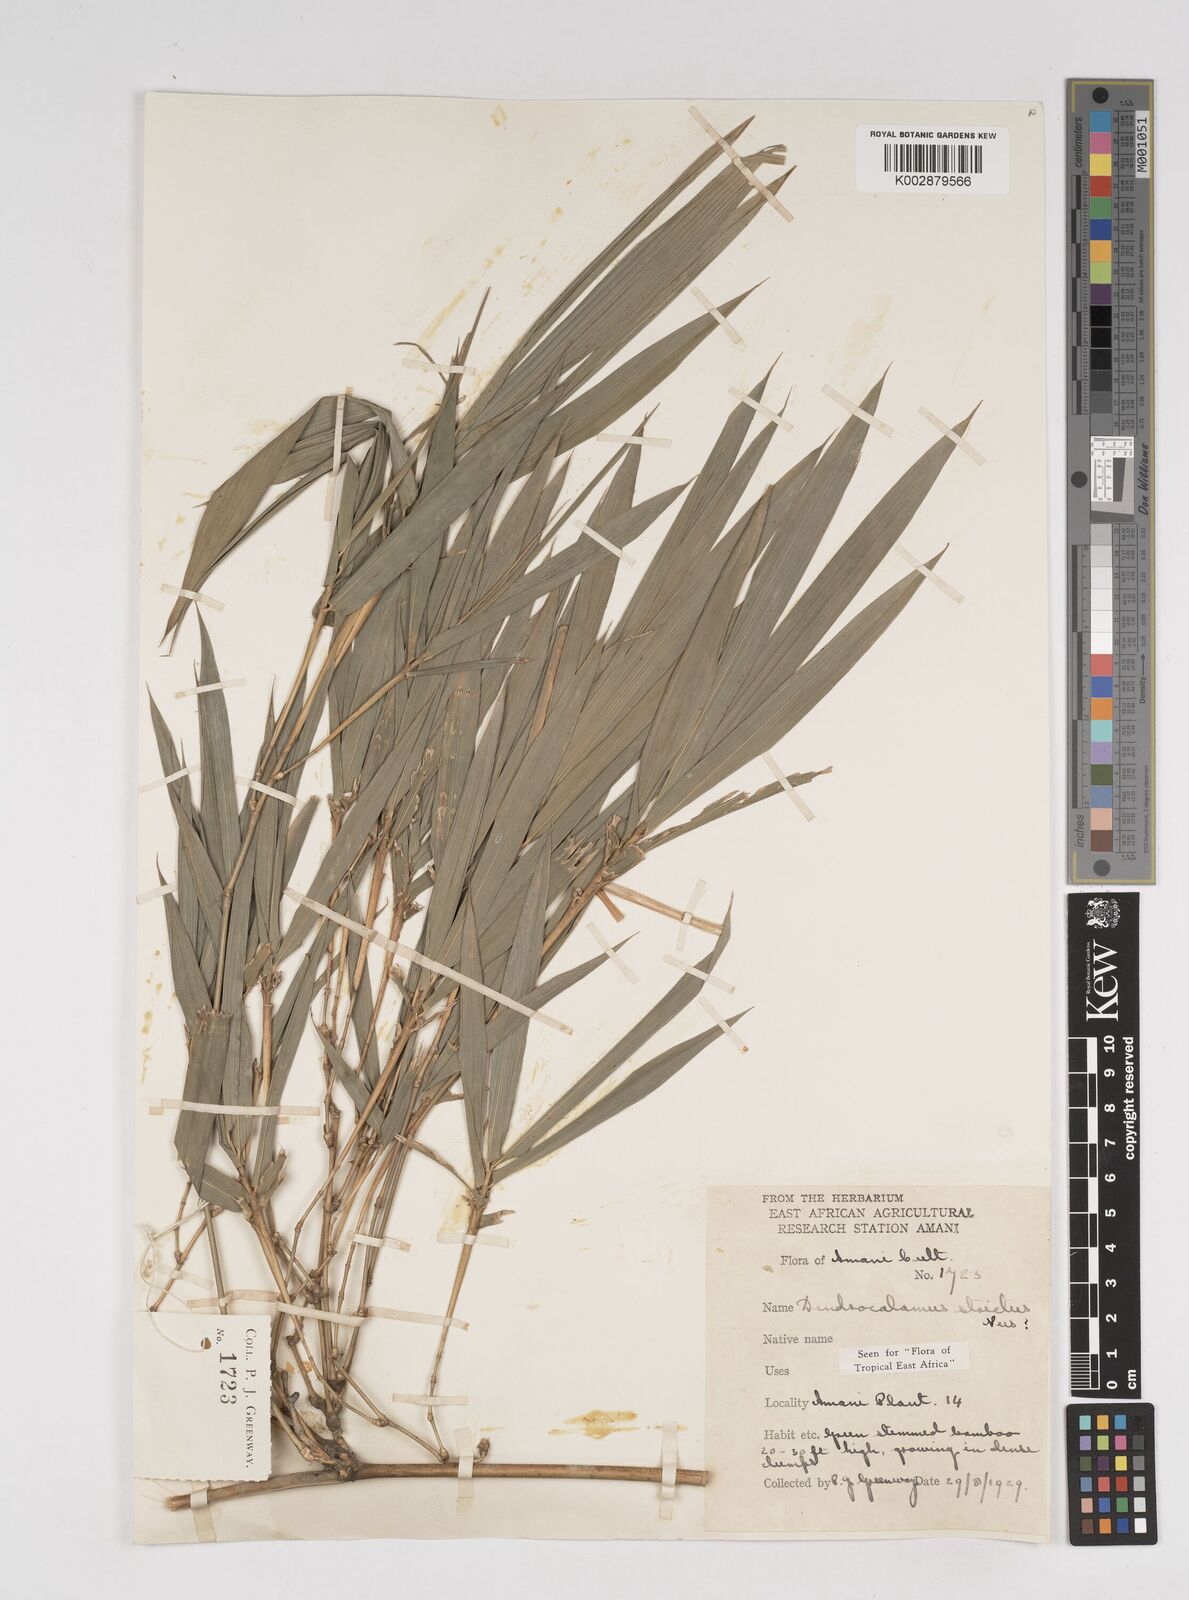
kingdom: Plantae
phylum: Tracheophyta
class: Liliopsida
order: Poales
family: Poaceae
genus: Dendrocalamus
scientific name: Dendrocalamus strictus
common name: Male bamboo
